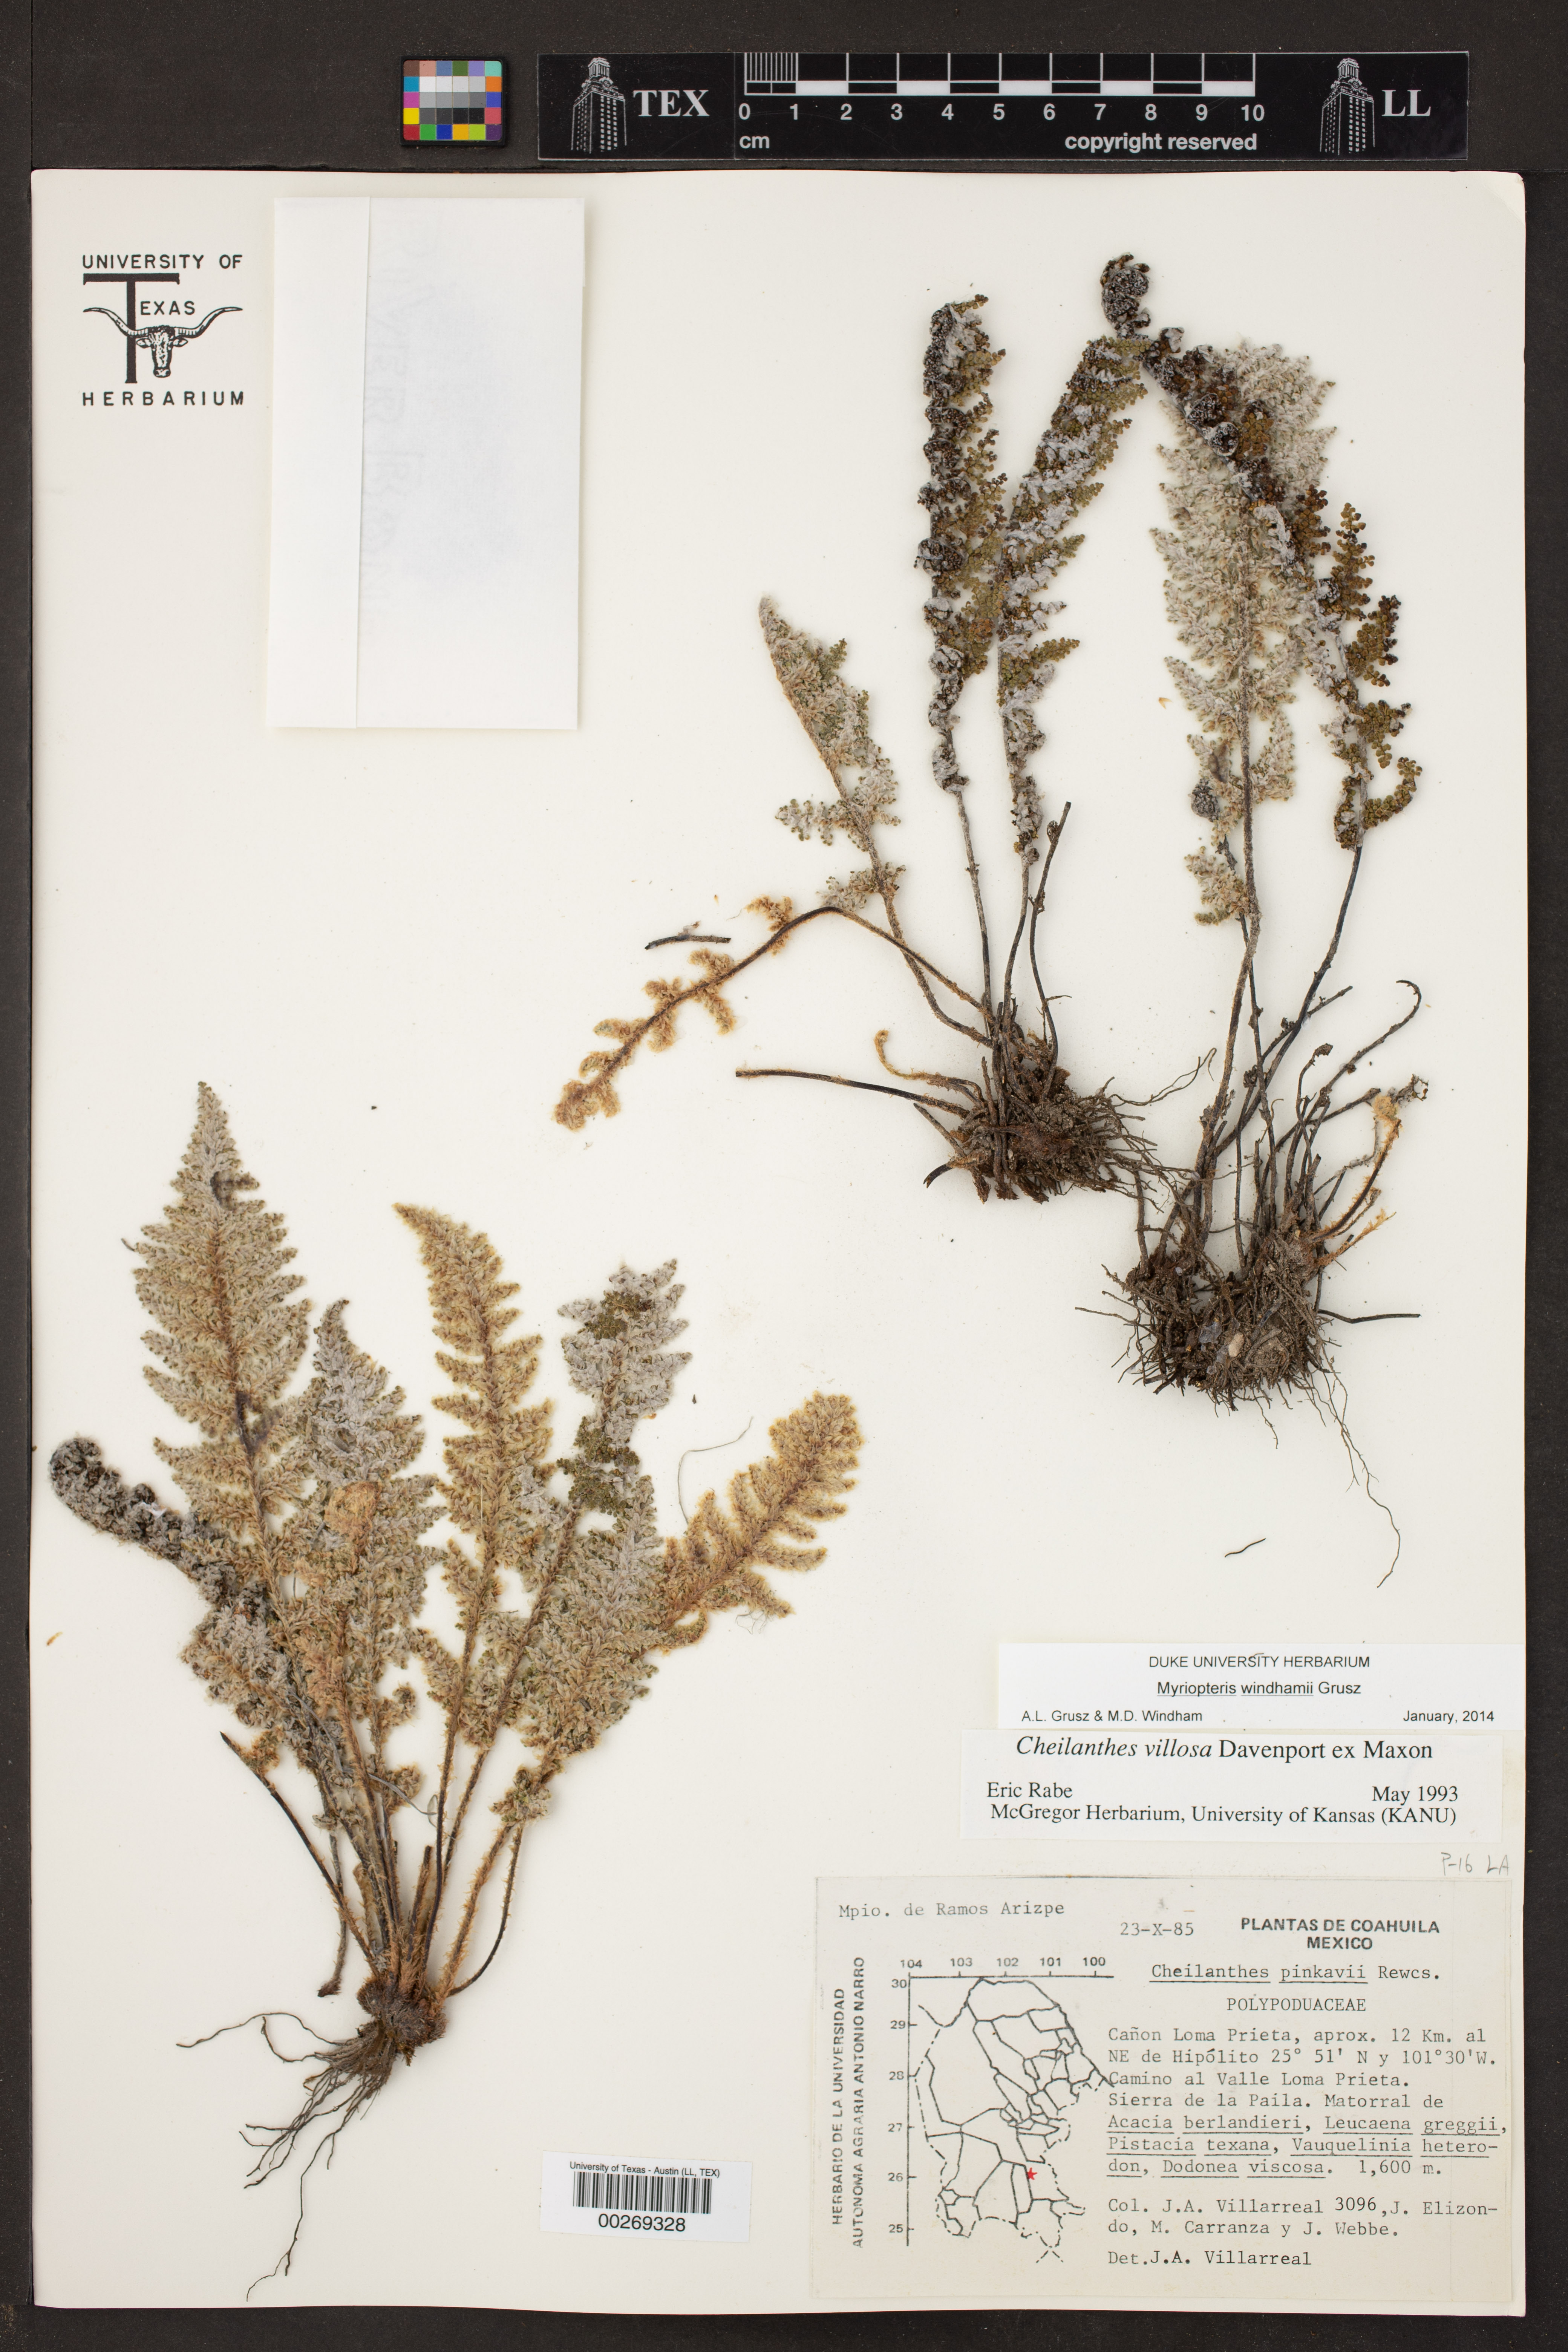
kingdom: Plantae
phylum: Tracheophyta
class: Polypodiopsida
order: Polypodiales
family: Pteridaceae
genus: Cheilanthes
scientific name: Cheilanthes villosa
